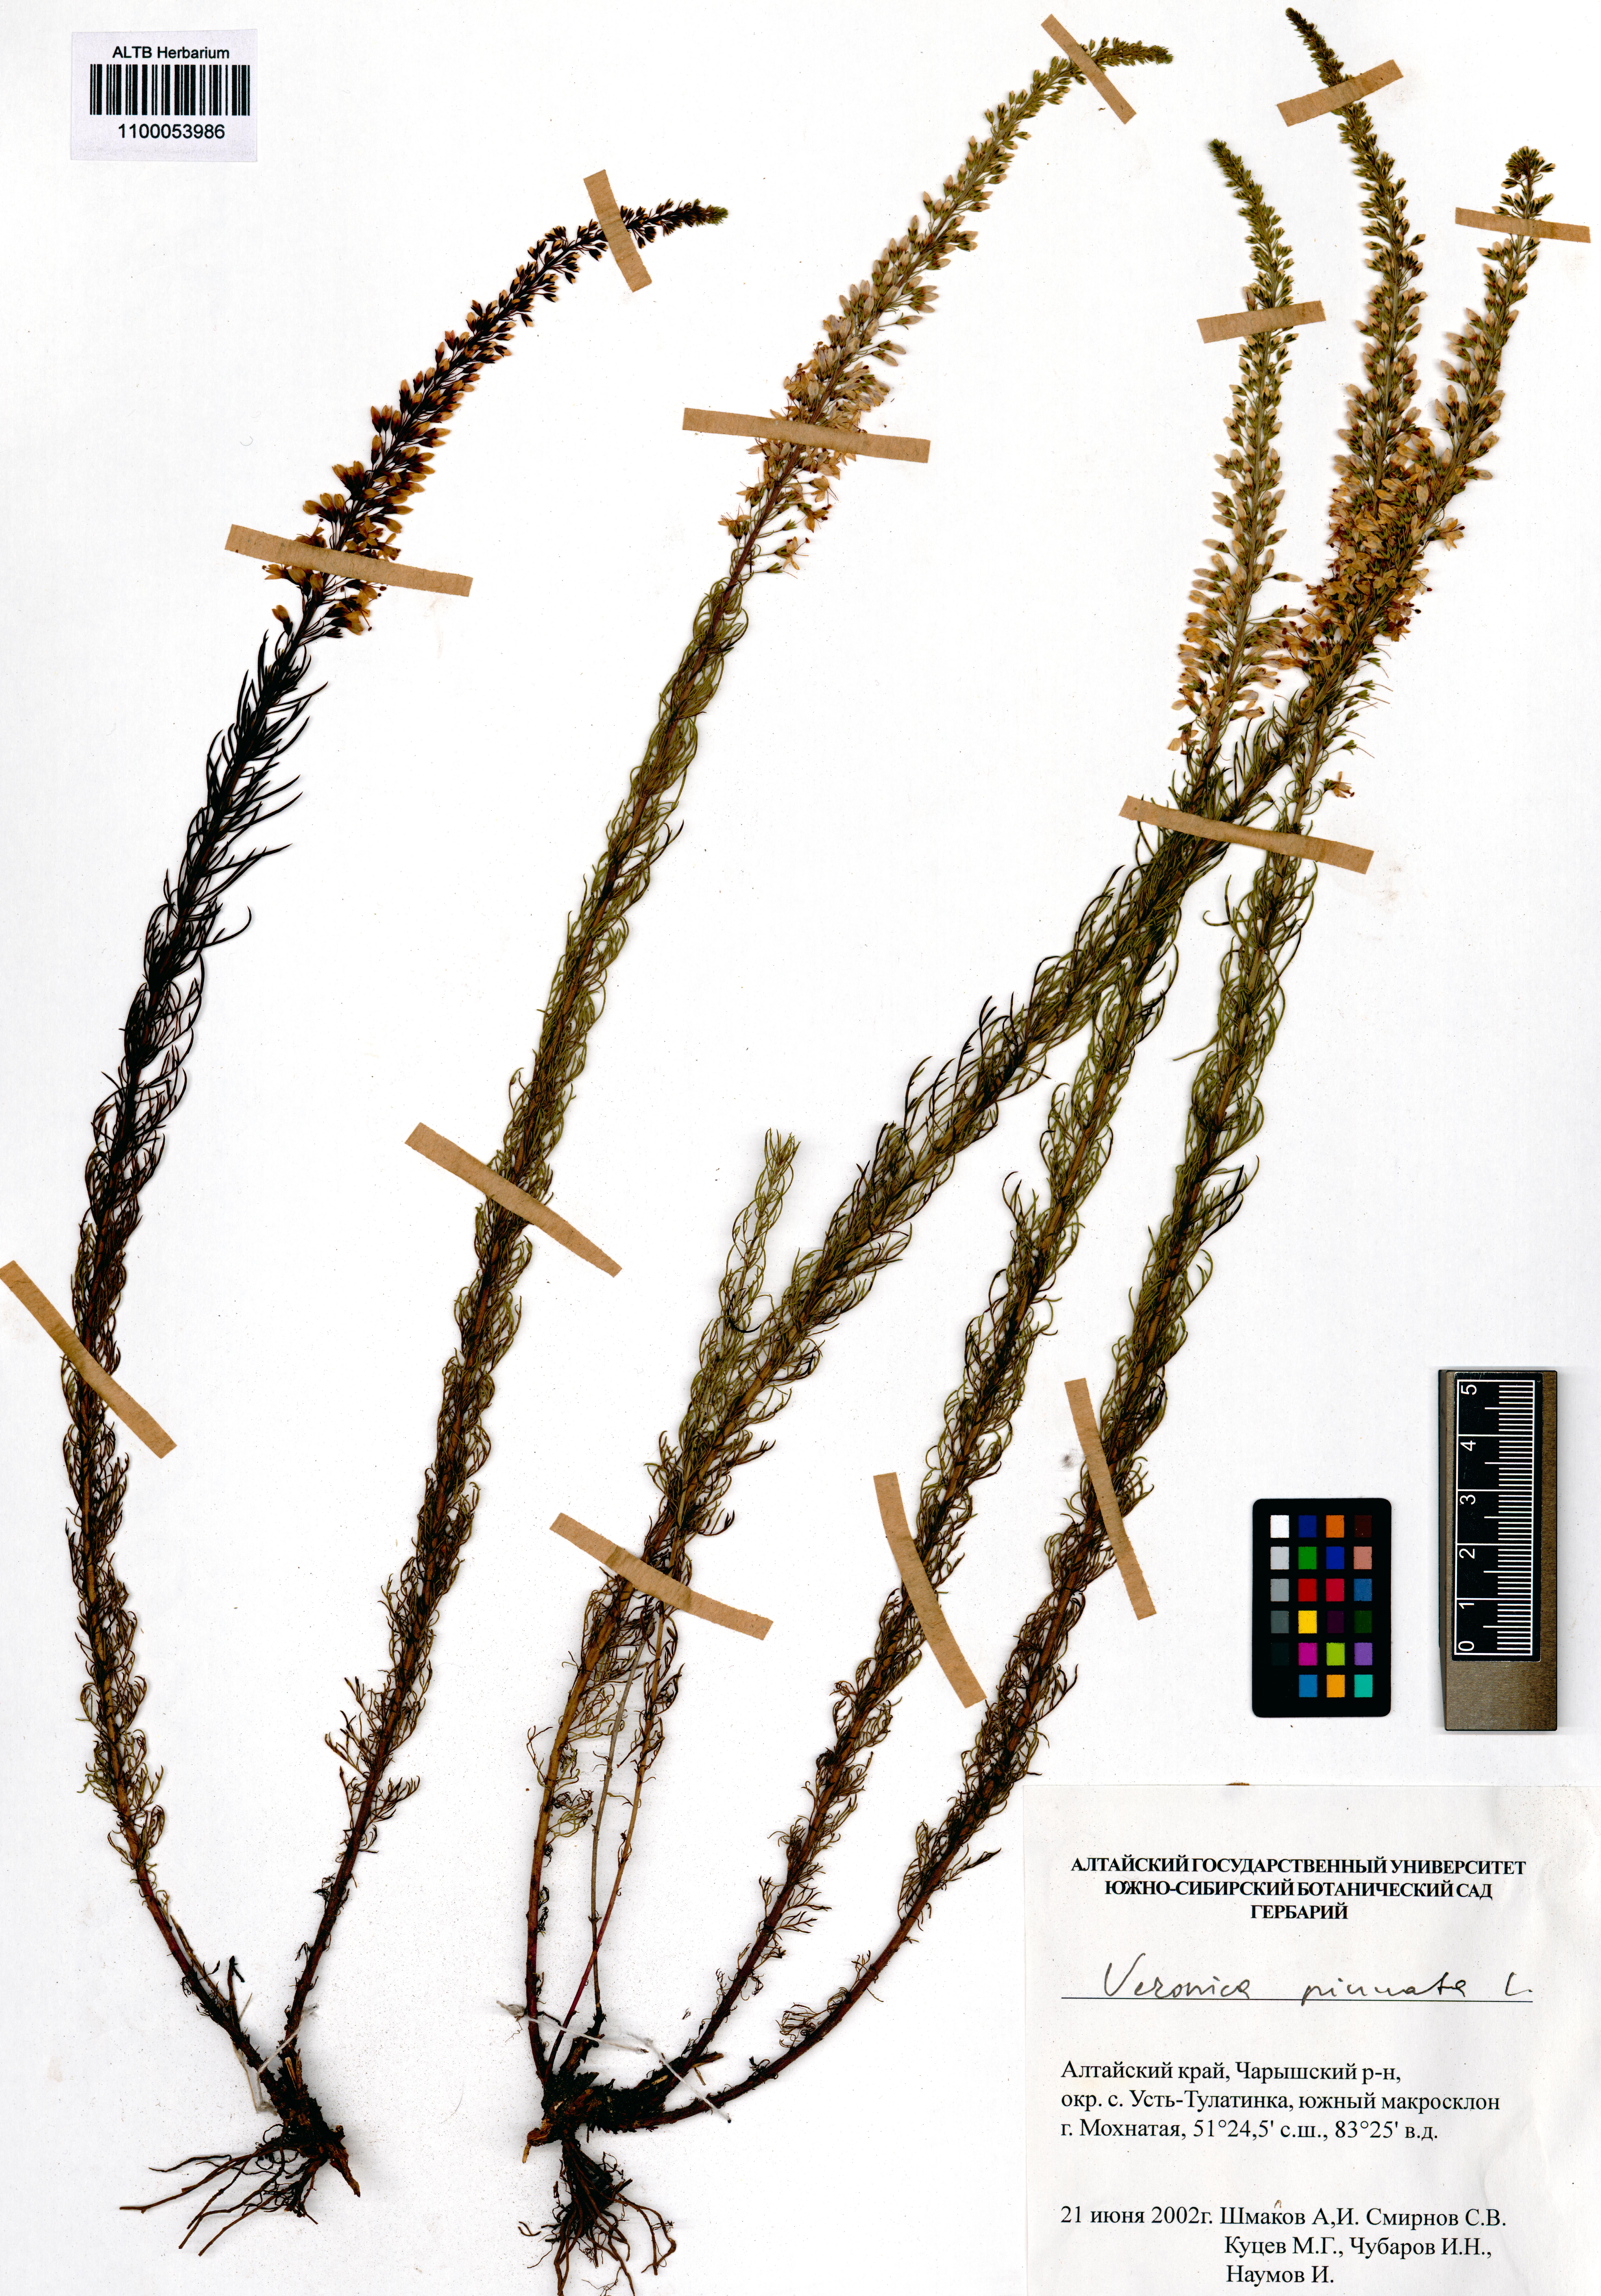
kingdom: Plantae
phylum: Tracheophyta
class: Magnoliopsida
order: Lamiales
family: Plantaginaceae
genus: Veronica
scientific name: Veronica pinnata
